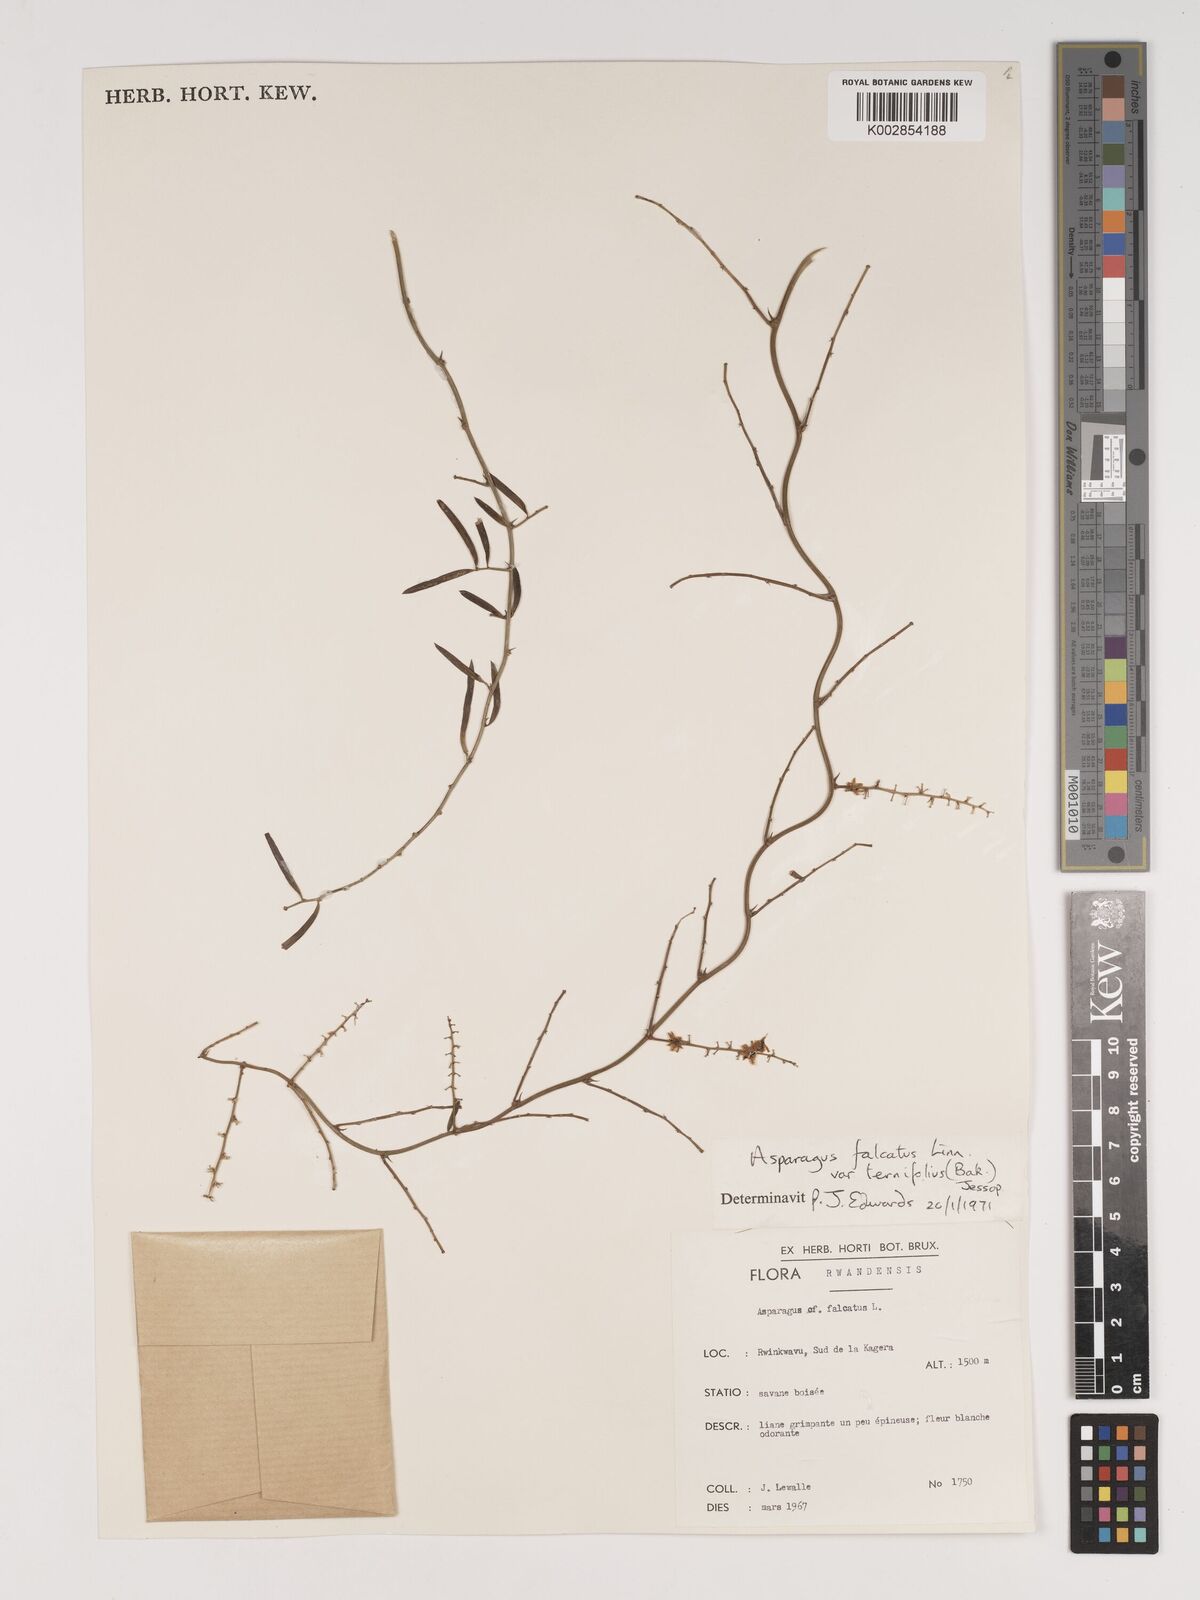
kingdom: Plantae
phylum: Tracheophyta
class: Liliopsida
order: Asparagales
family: Asparagaceae
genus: Asparagus
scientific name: Asparagus falcatus
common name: Asparagus
